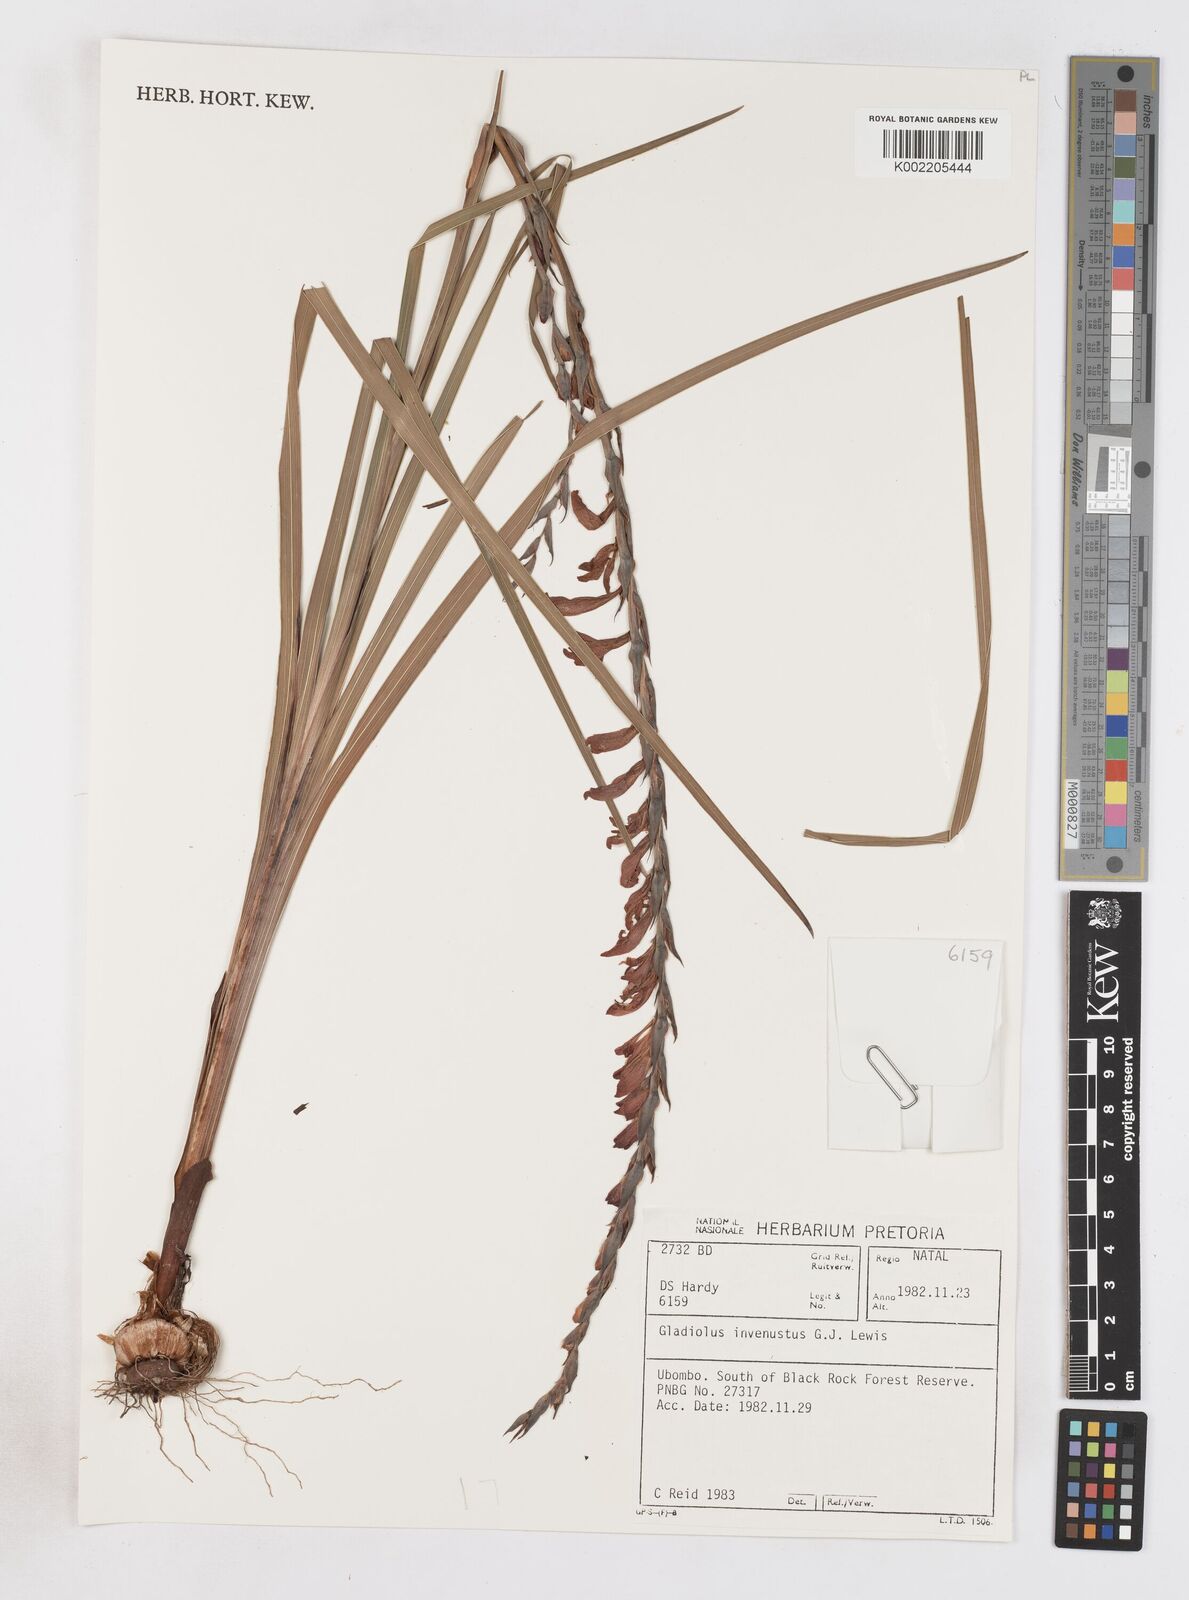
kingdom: Plantae
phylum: Tracheophyta
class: Liliopsida
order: Asparagales
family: Iridaceae
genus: Gladiolus
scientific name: Gladiolus densiflorus
